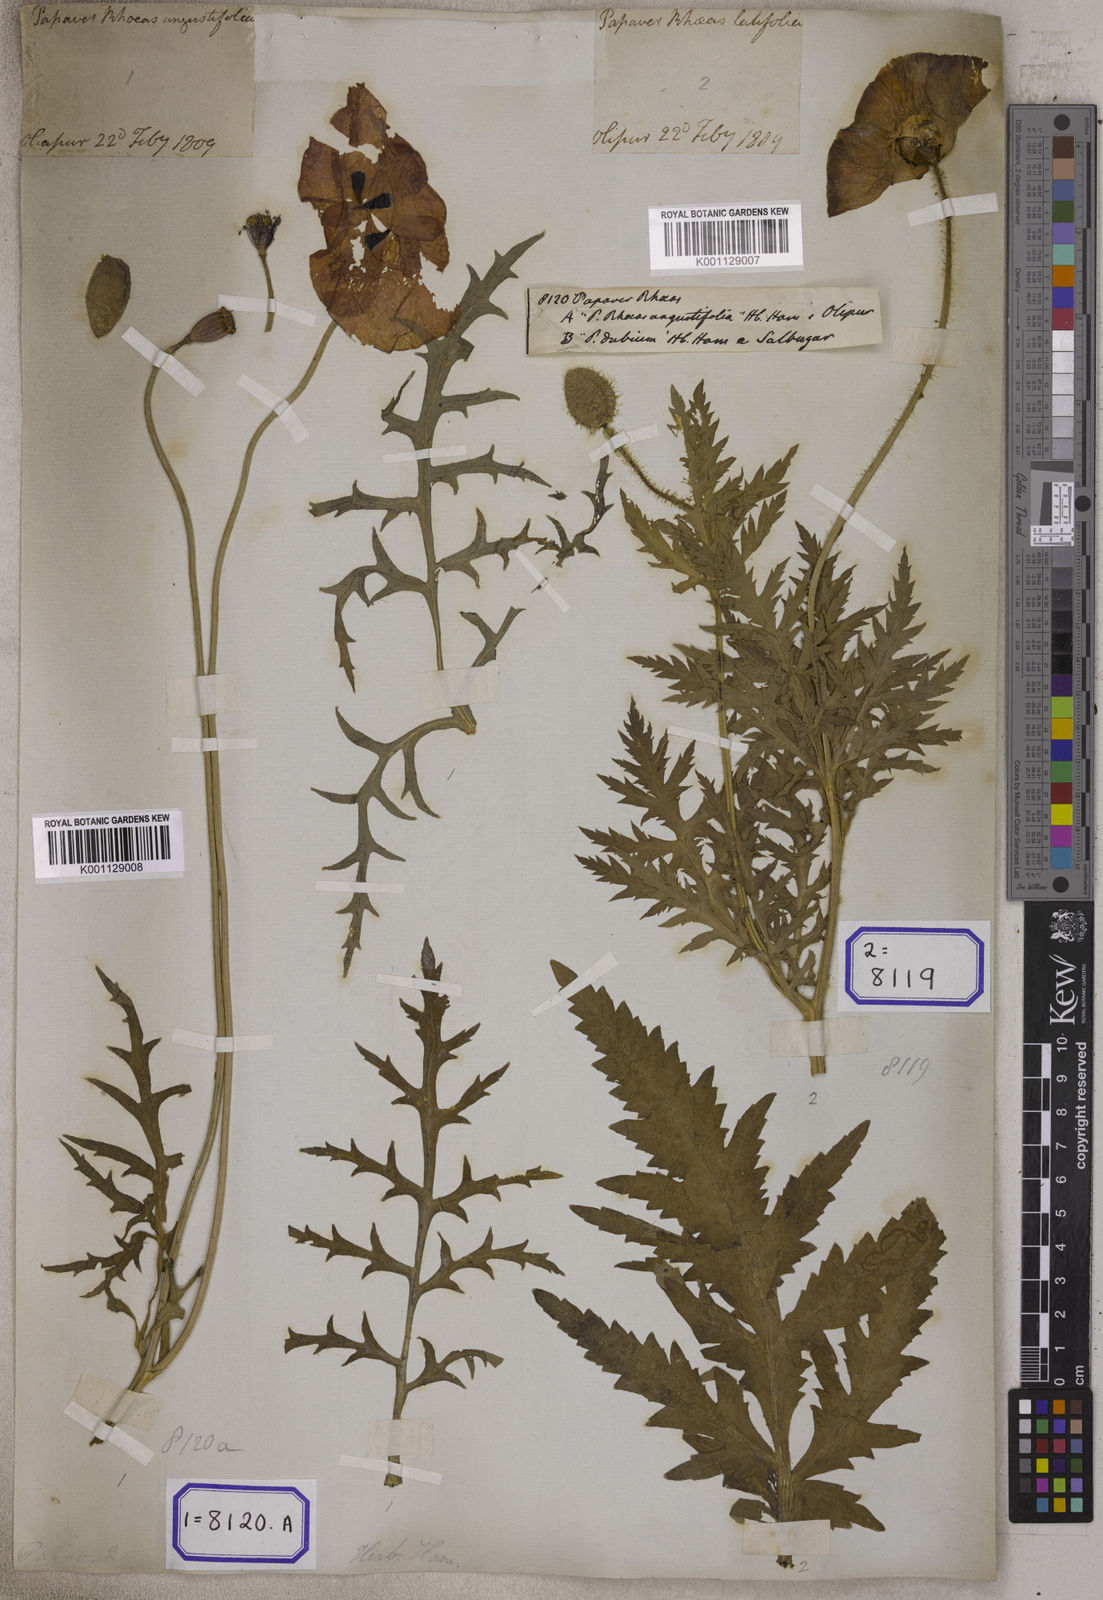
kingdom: Plantae
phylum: Tracheophyta
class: Magnoliopsida
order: Ranunculales
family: Papaveraceae
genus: Papaver
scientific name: Papaver rhoeas
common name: Corn poppy
